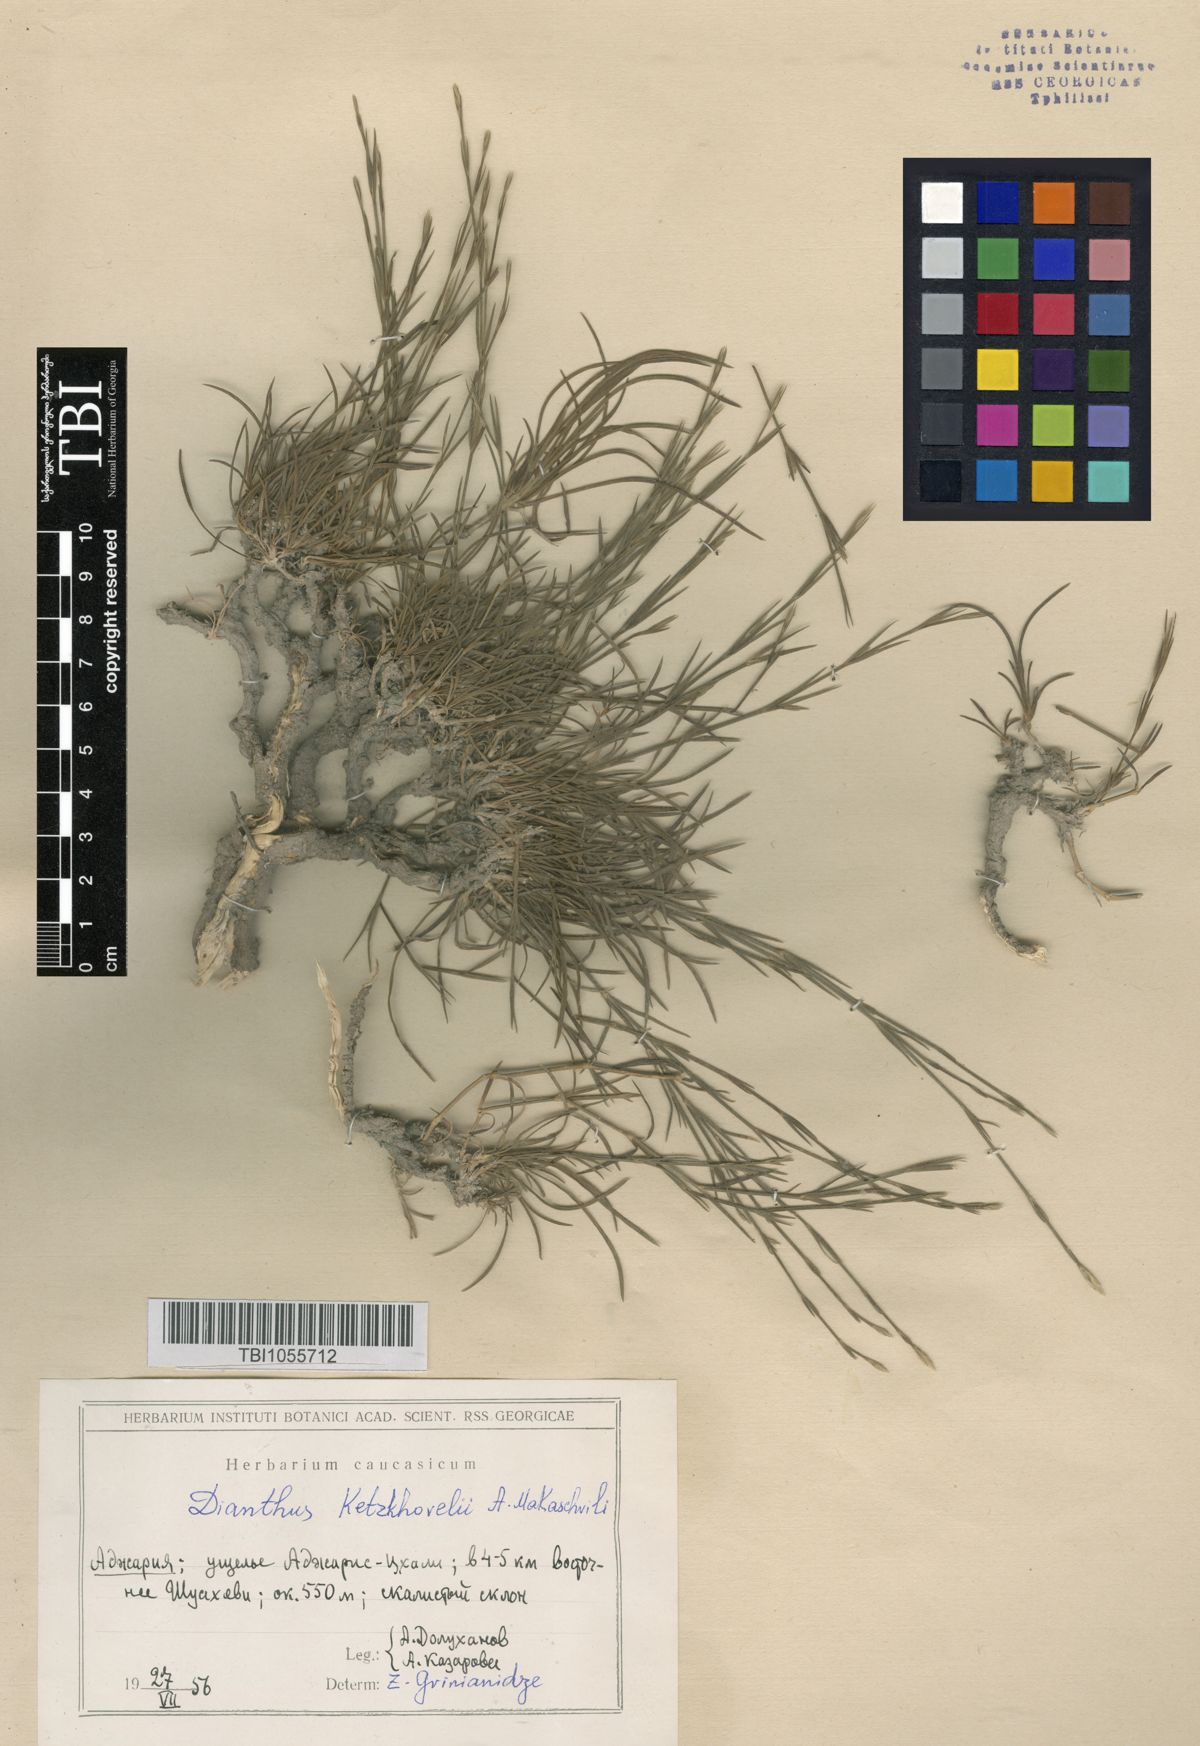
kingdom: Plantae
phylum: Tracheophyta
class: Magnoliopsida
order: Caryophyllales
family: Caryophyllaceae
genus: Dianthus
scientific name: Dianthus orientalis
